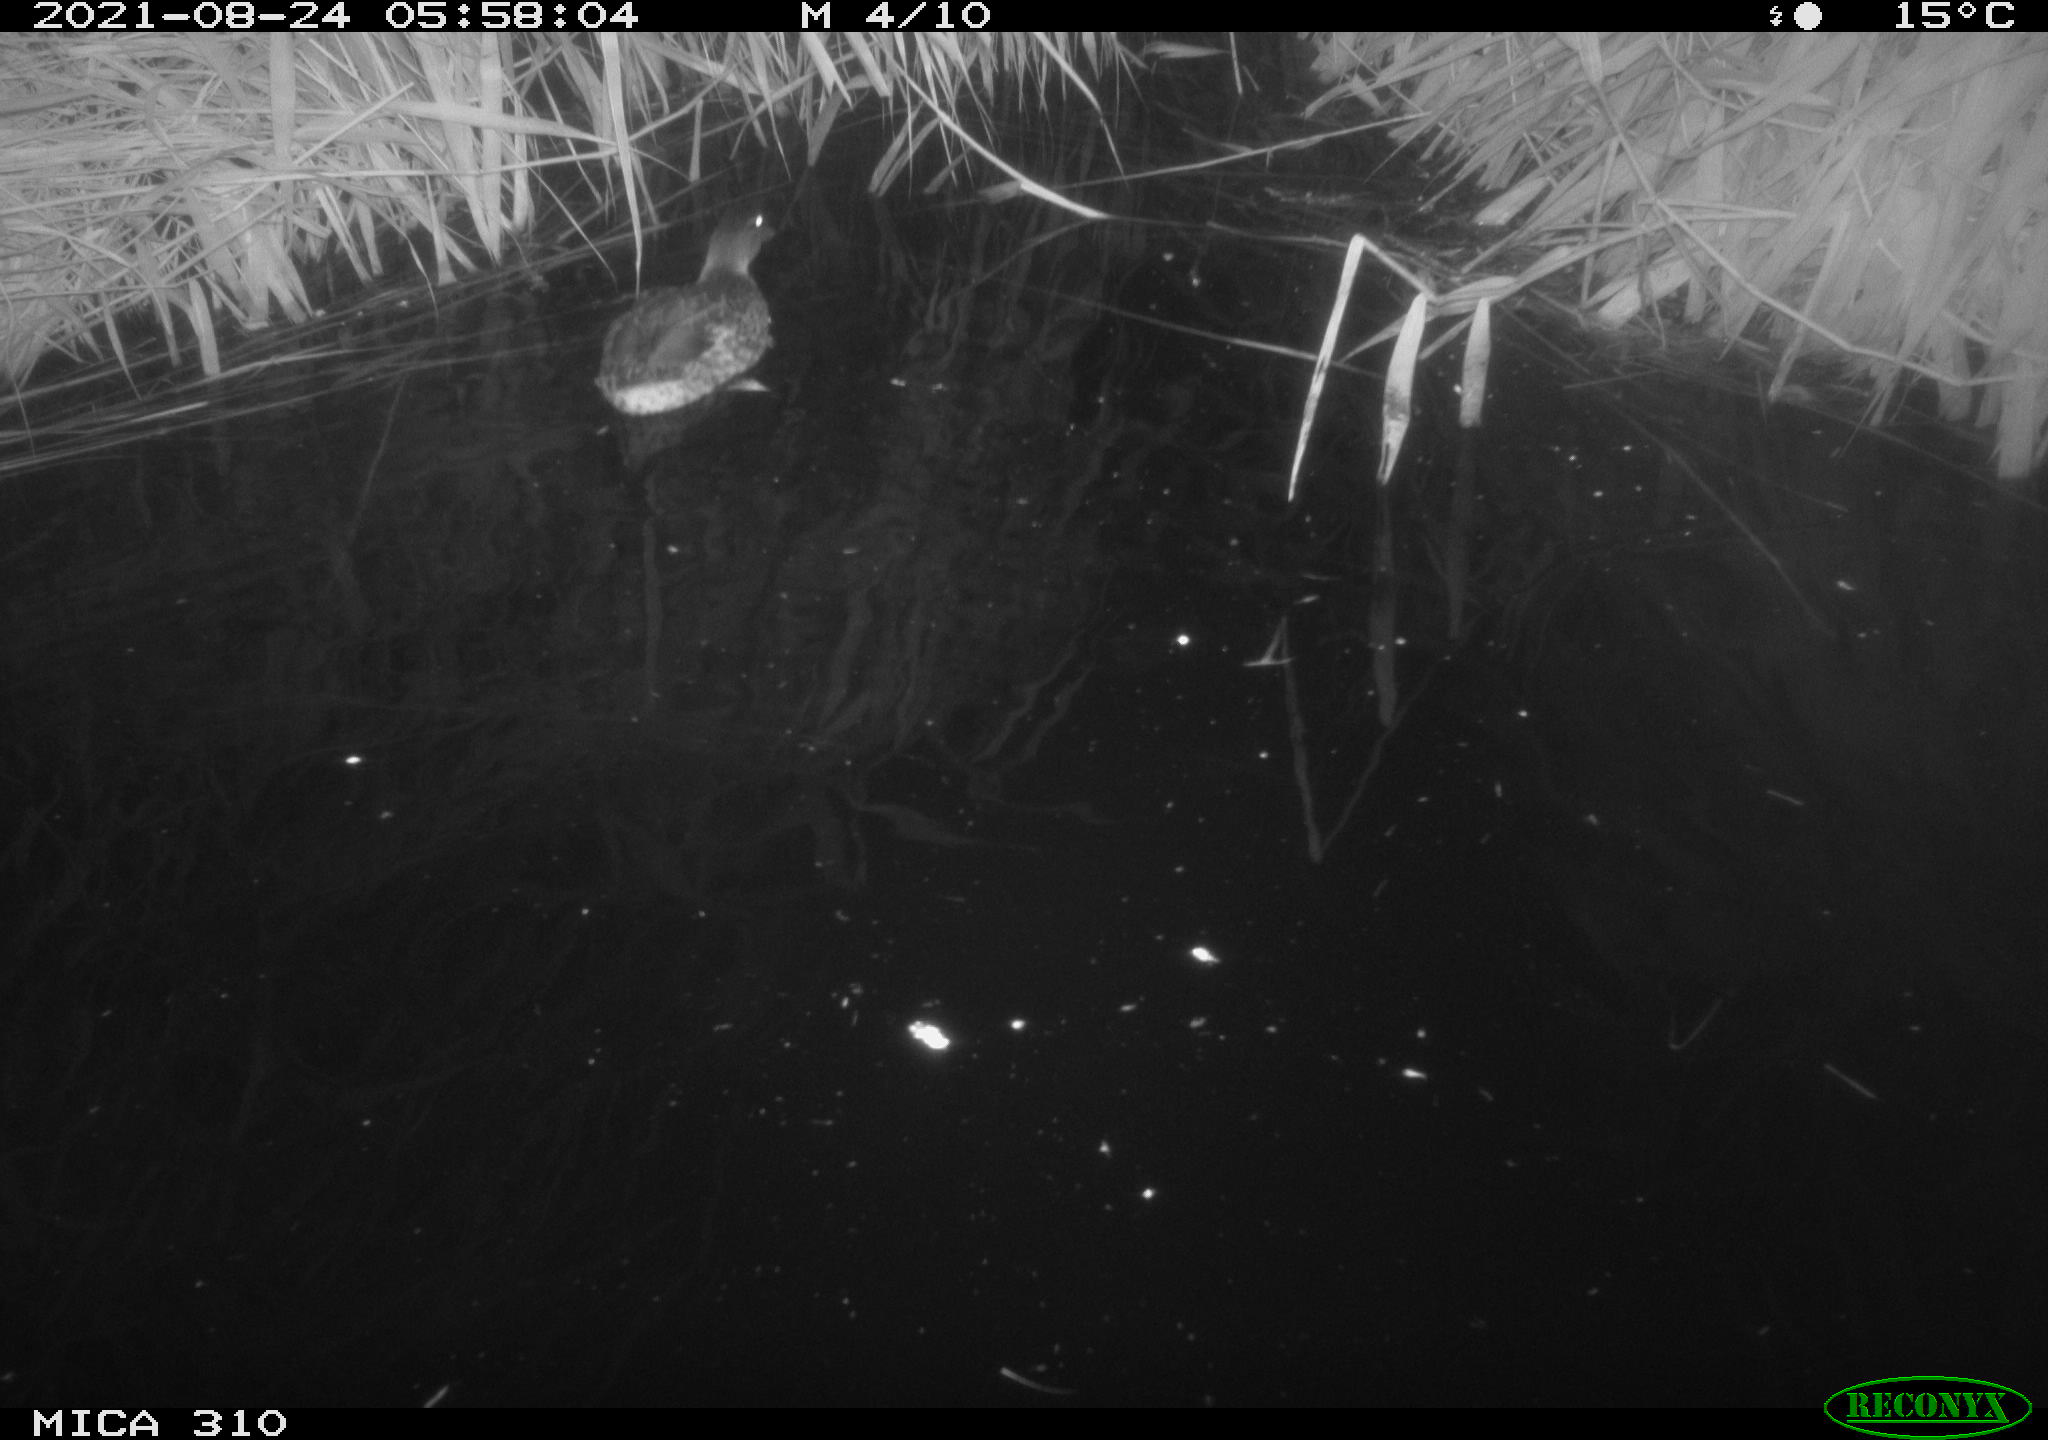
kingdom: Animalia
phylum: Chordata
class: Aves
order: Gruiformes
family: Rallidae
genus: Gallinula
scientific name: Gallinula chloropus
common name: Common moorhen
